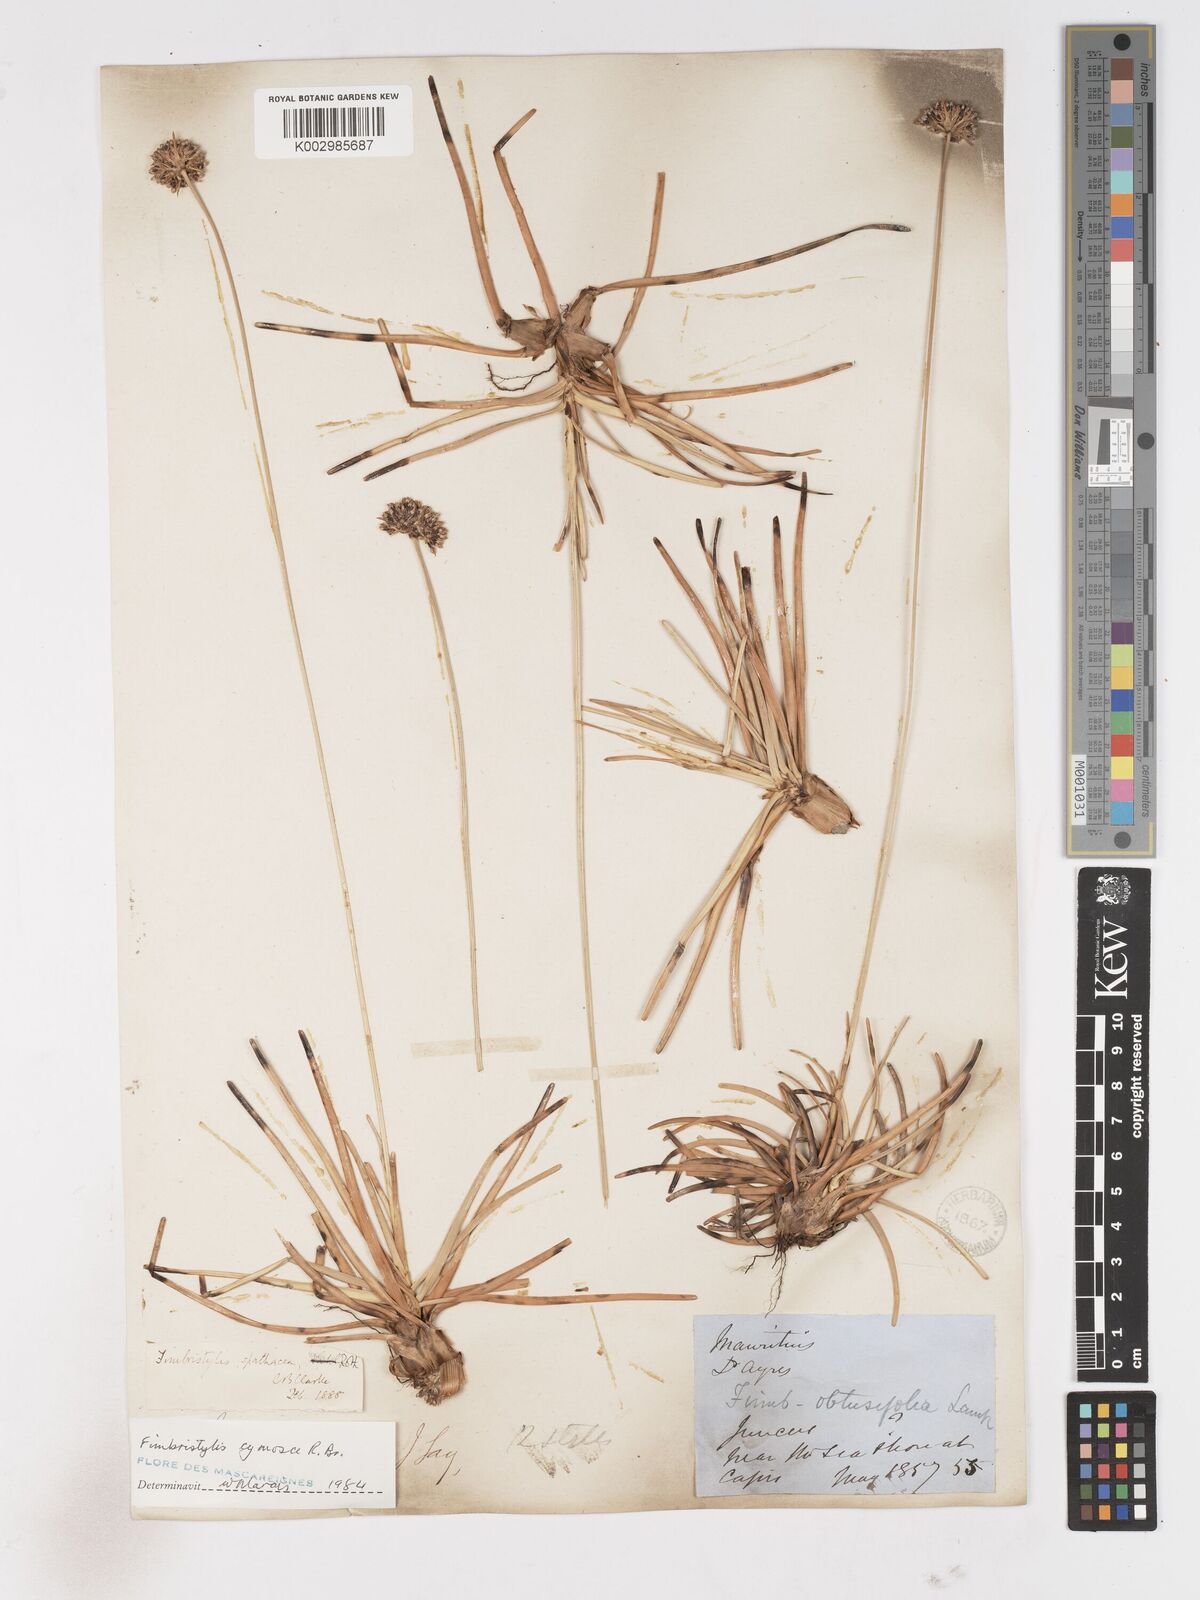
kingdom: Plantae
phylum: Tracheophyta
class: Liliopsida
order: Poales
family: Cyperaceae
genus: Fimbristylis
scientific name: Fimbristylis cymosa
